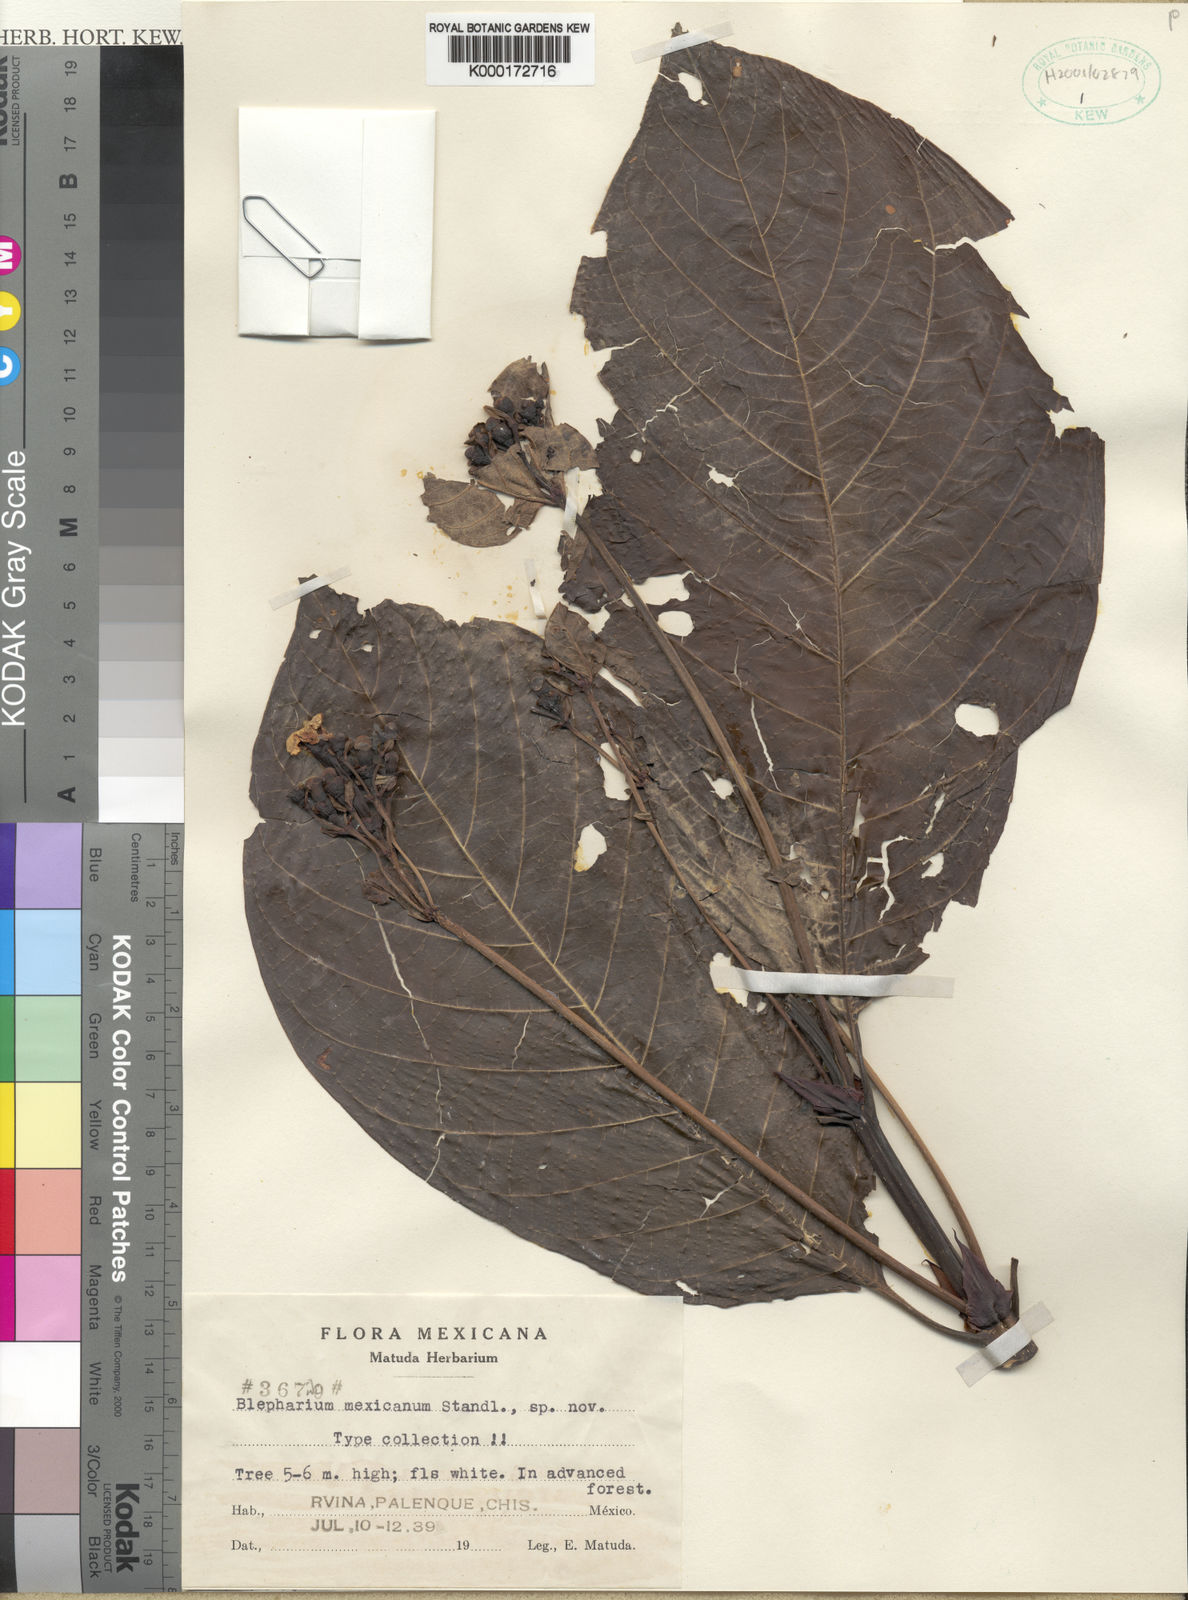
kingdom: Plantae
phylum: Tracheophyta
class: Magnoliopsida
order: Gentianales
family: Rubiaceae
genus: Blepharidium
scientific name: Blepharidium guatemalense
